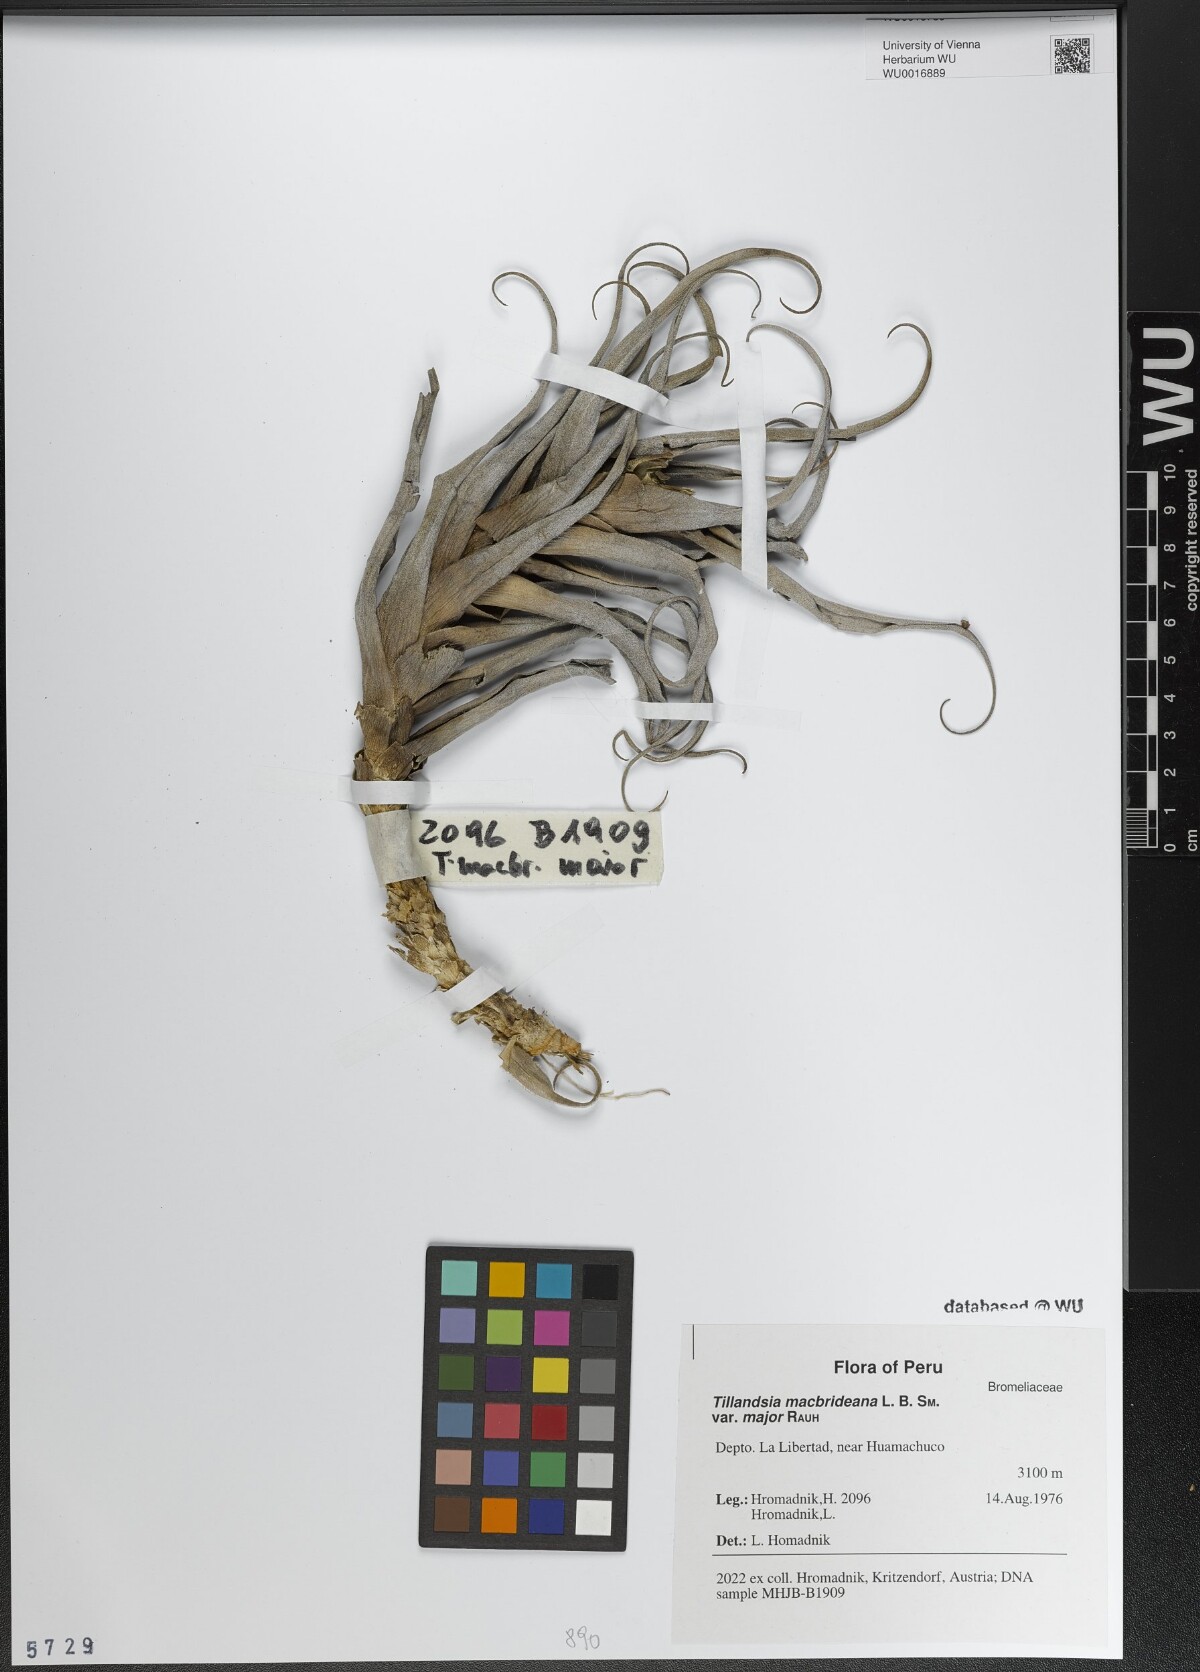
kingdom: Plantae
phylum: Tracheophyta
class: Liliopsida
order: Poales
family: Bromeliaceae
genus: Tillandsia
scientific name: Tillandsia macbrideana
